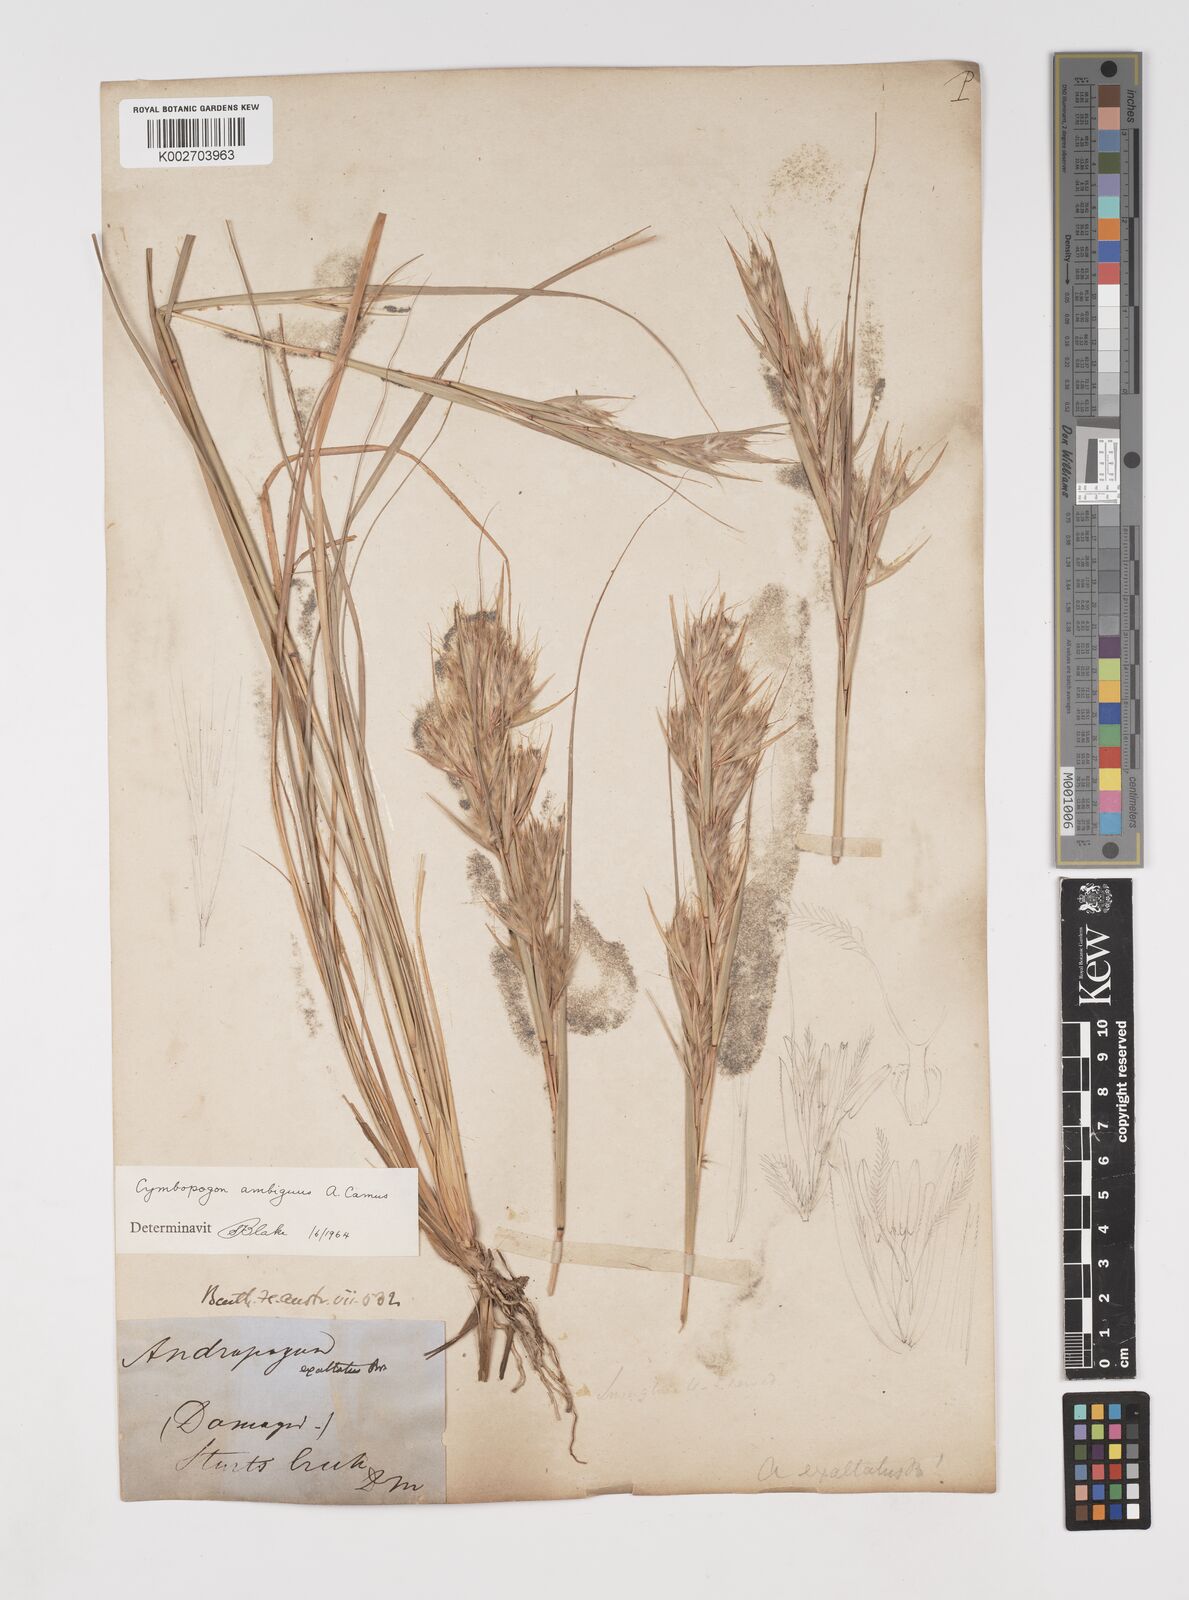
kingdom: Plantae
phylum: Tracheophyta
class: Liliopsida
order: Poales
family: Poaceae
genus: Cymbopogon
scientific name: Cymbopogon ambiguus
